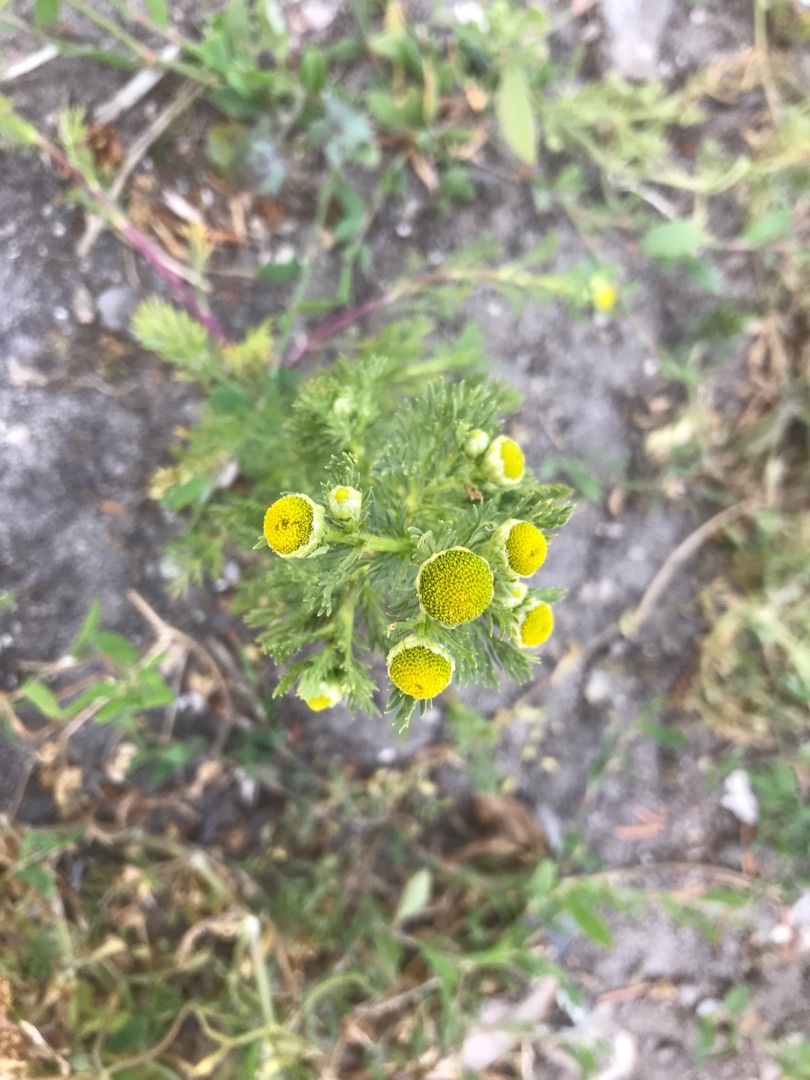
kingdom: Plantae
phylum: Tracheophyta
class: Magnoliopsida
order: Asterales
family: Asteraceae
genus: Matricaria
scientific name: Matricaria discoidea
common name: Skive-kamille
